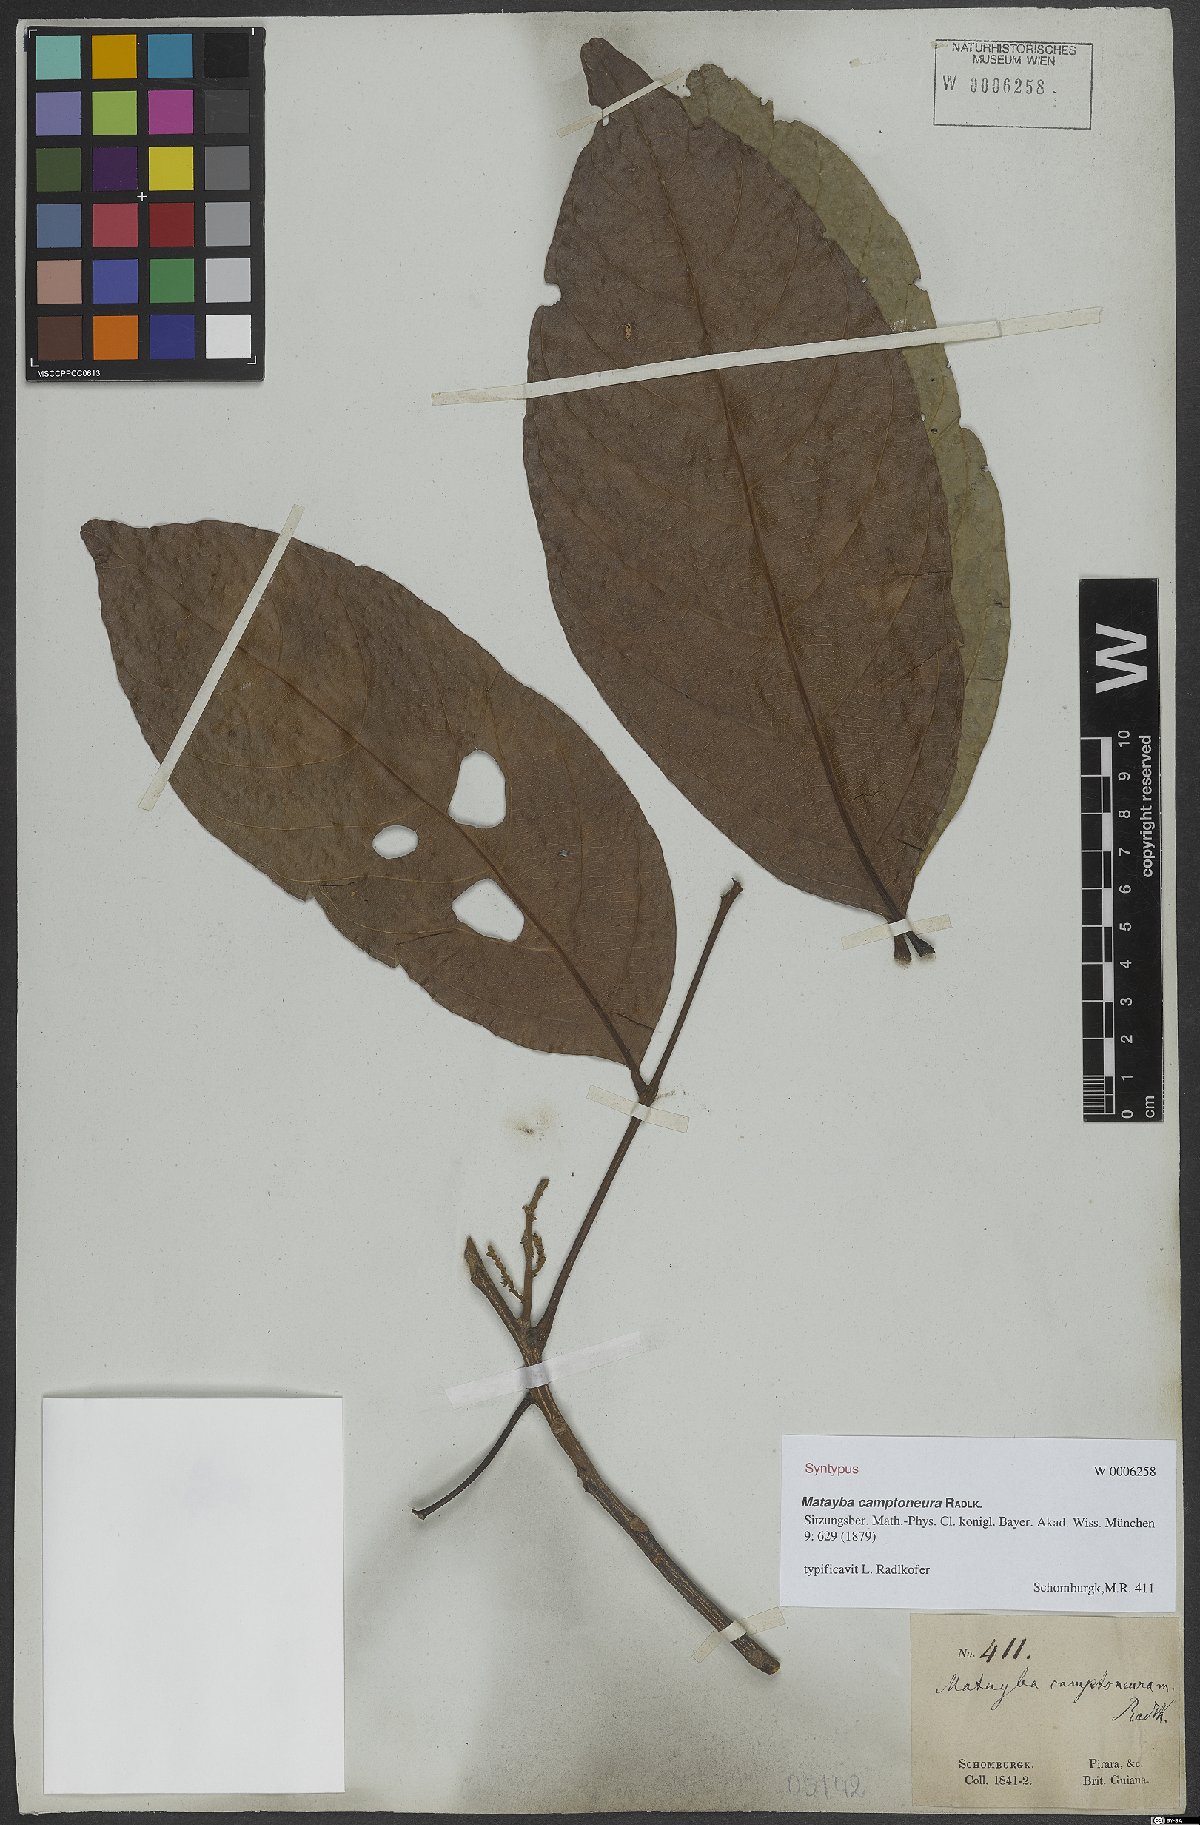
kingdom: Plantae
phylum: Tracheophyta
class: Magnoliopsida
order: Sapindales
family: Sapindaceae
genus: Matayba
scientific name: Matayba camptoneura
